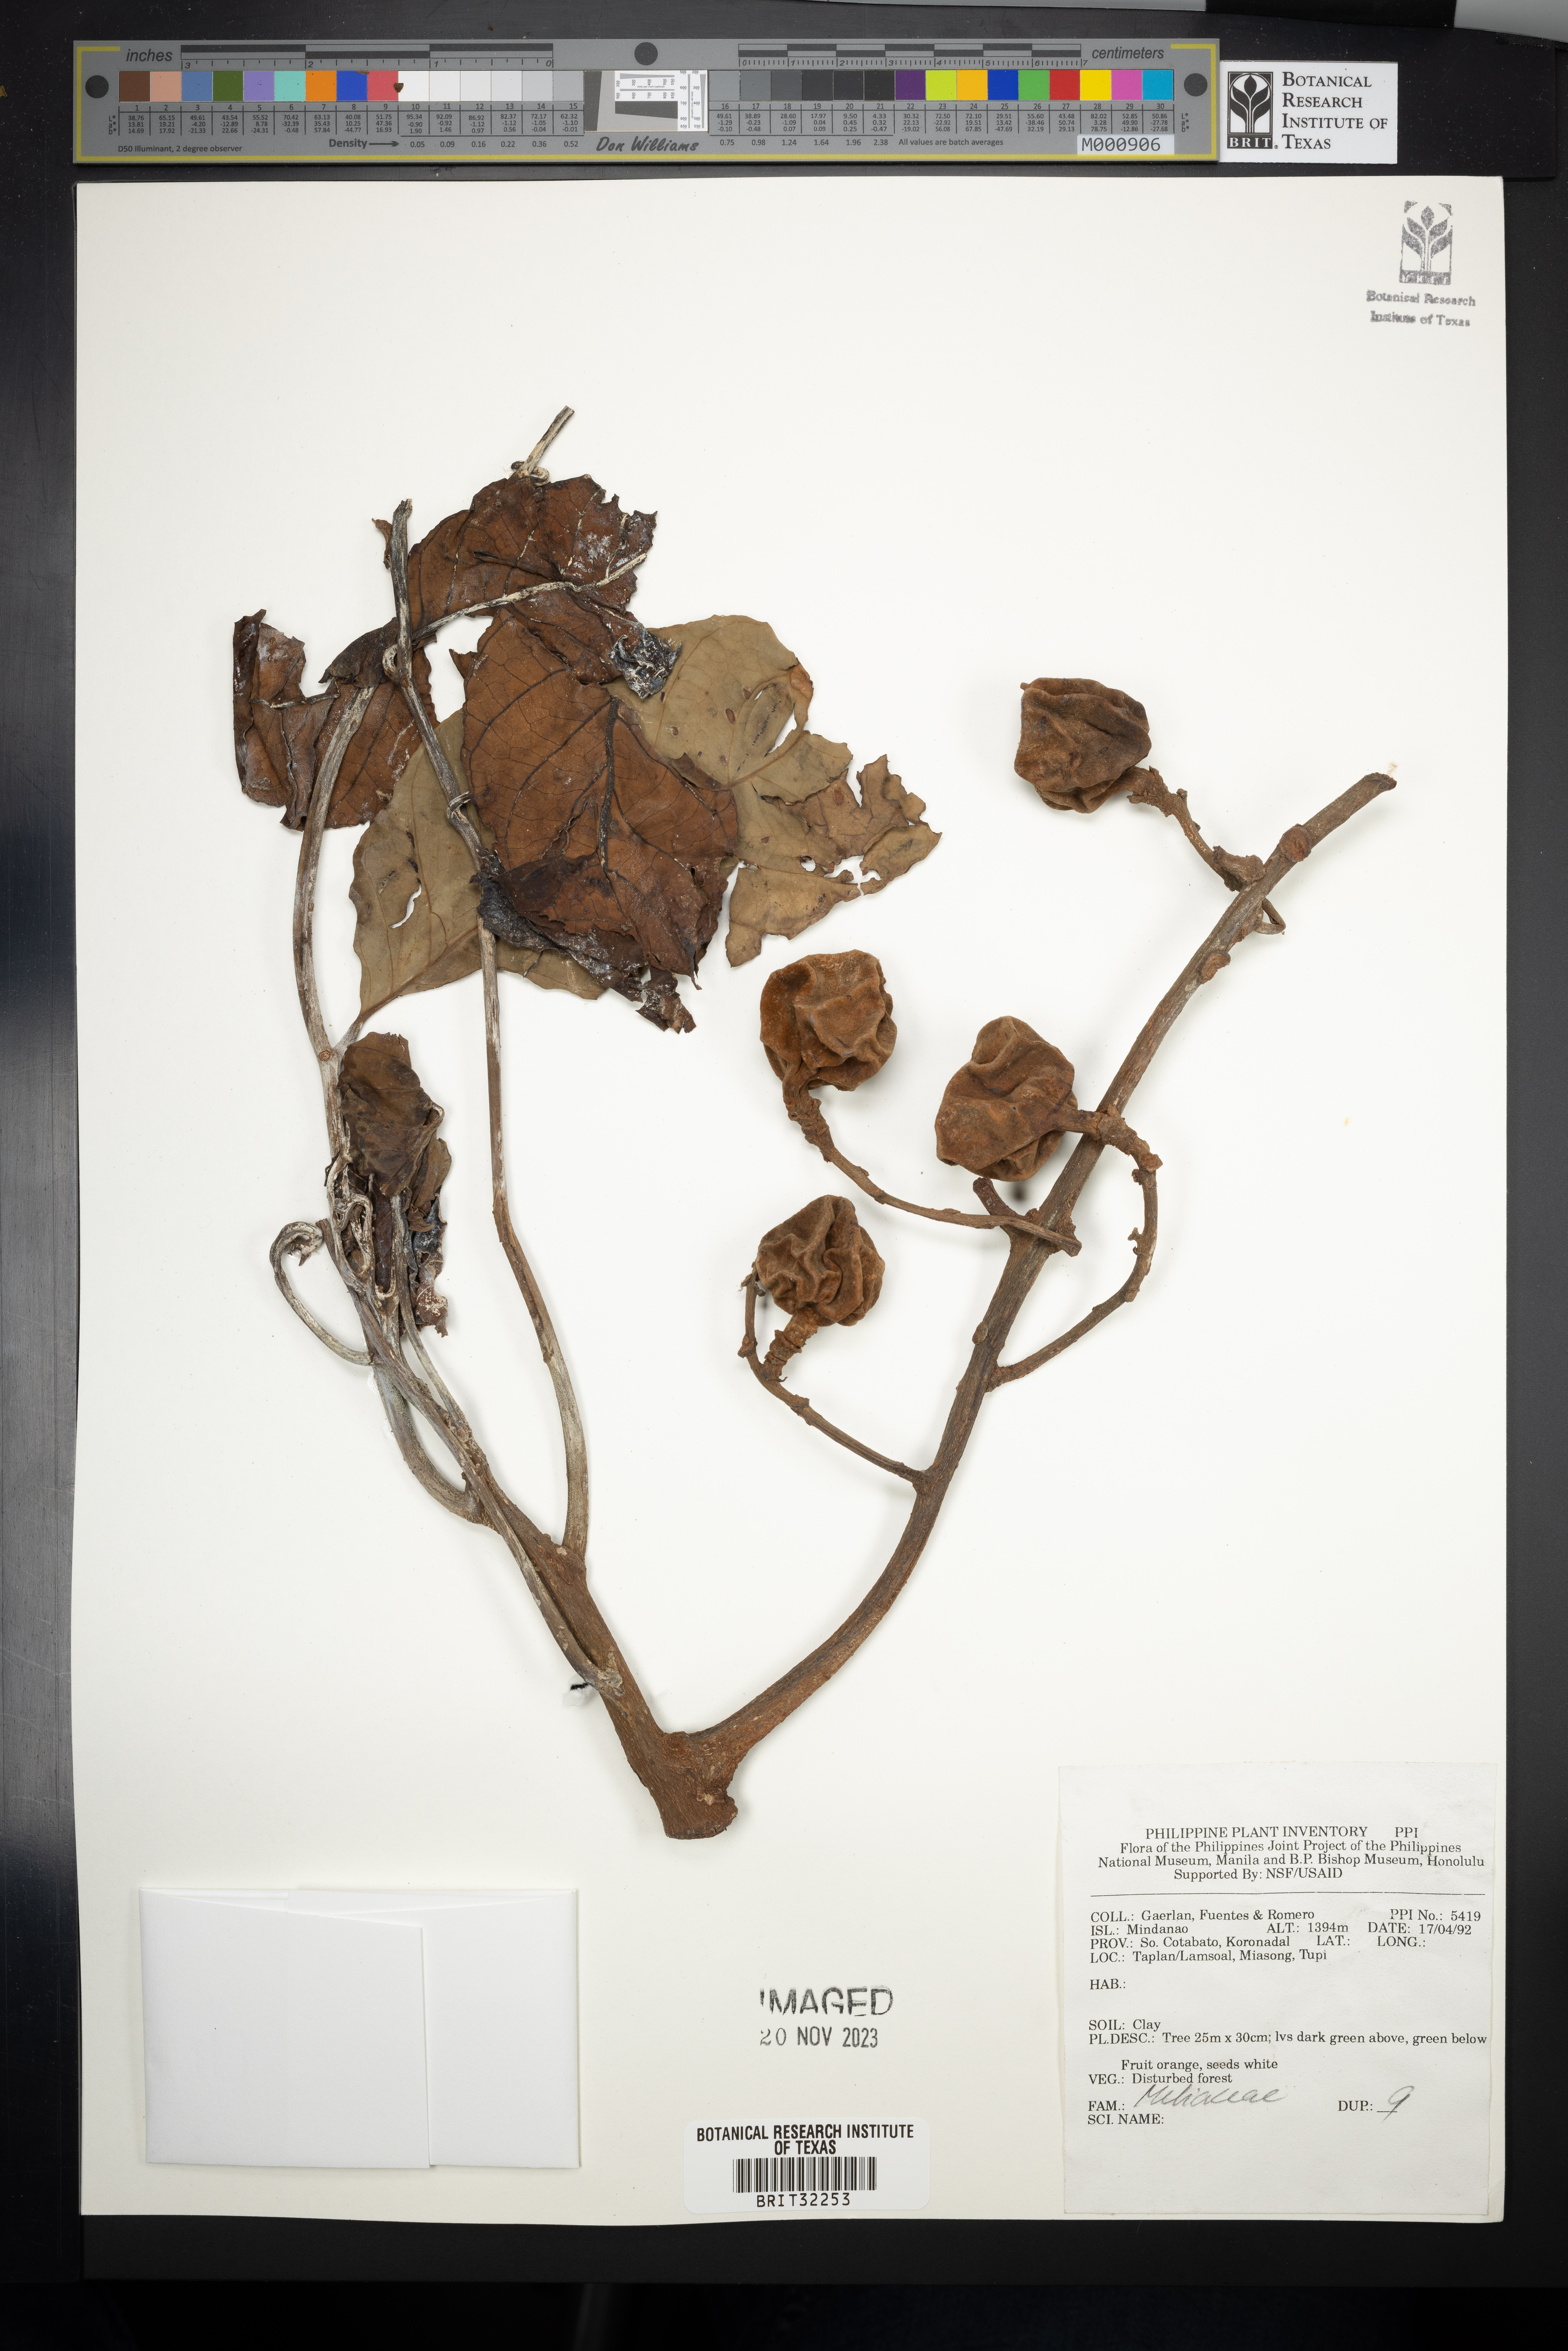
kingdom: Plantae
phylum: Tracheophyta
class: Magnoliopsida
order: Sapindales
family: Meliaceae
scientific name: Meliaceae
